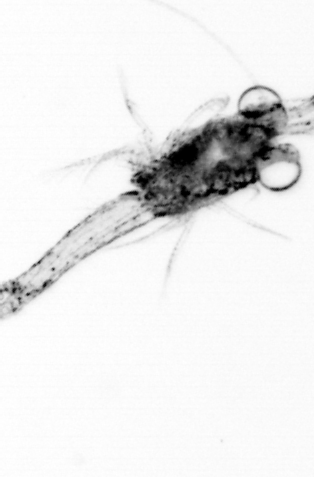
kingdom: Animalia
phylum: Arthropoda
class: Malacostraca
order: Decapoda
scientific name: Decapoda
